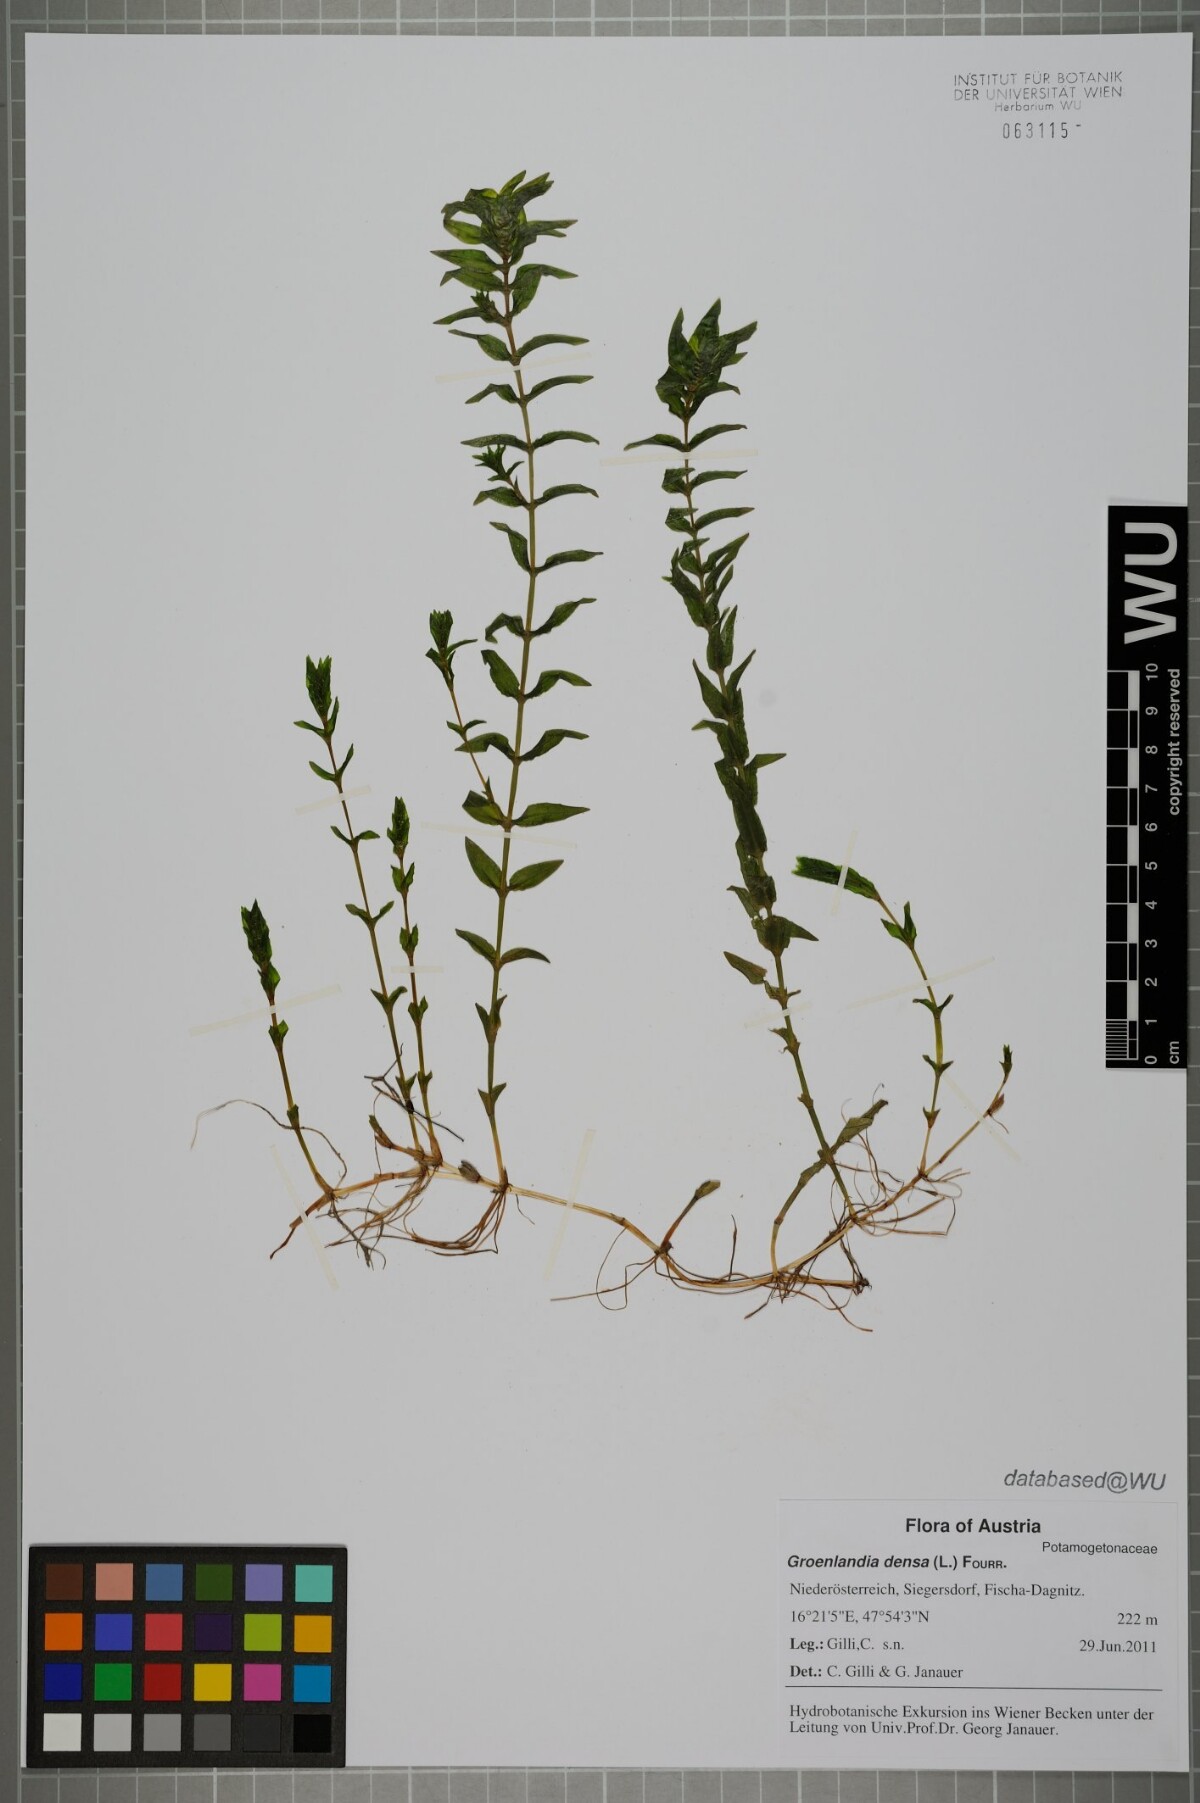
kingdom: Plantae
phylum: Tracheophyta
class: Liliopsida
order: Alismatales
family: Potamogetonaceae
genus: Groenlandia
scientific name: Groenlandia densa
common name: Opposite-leaved pondweed
